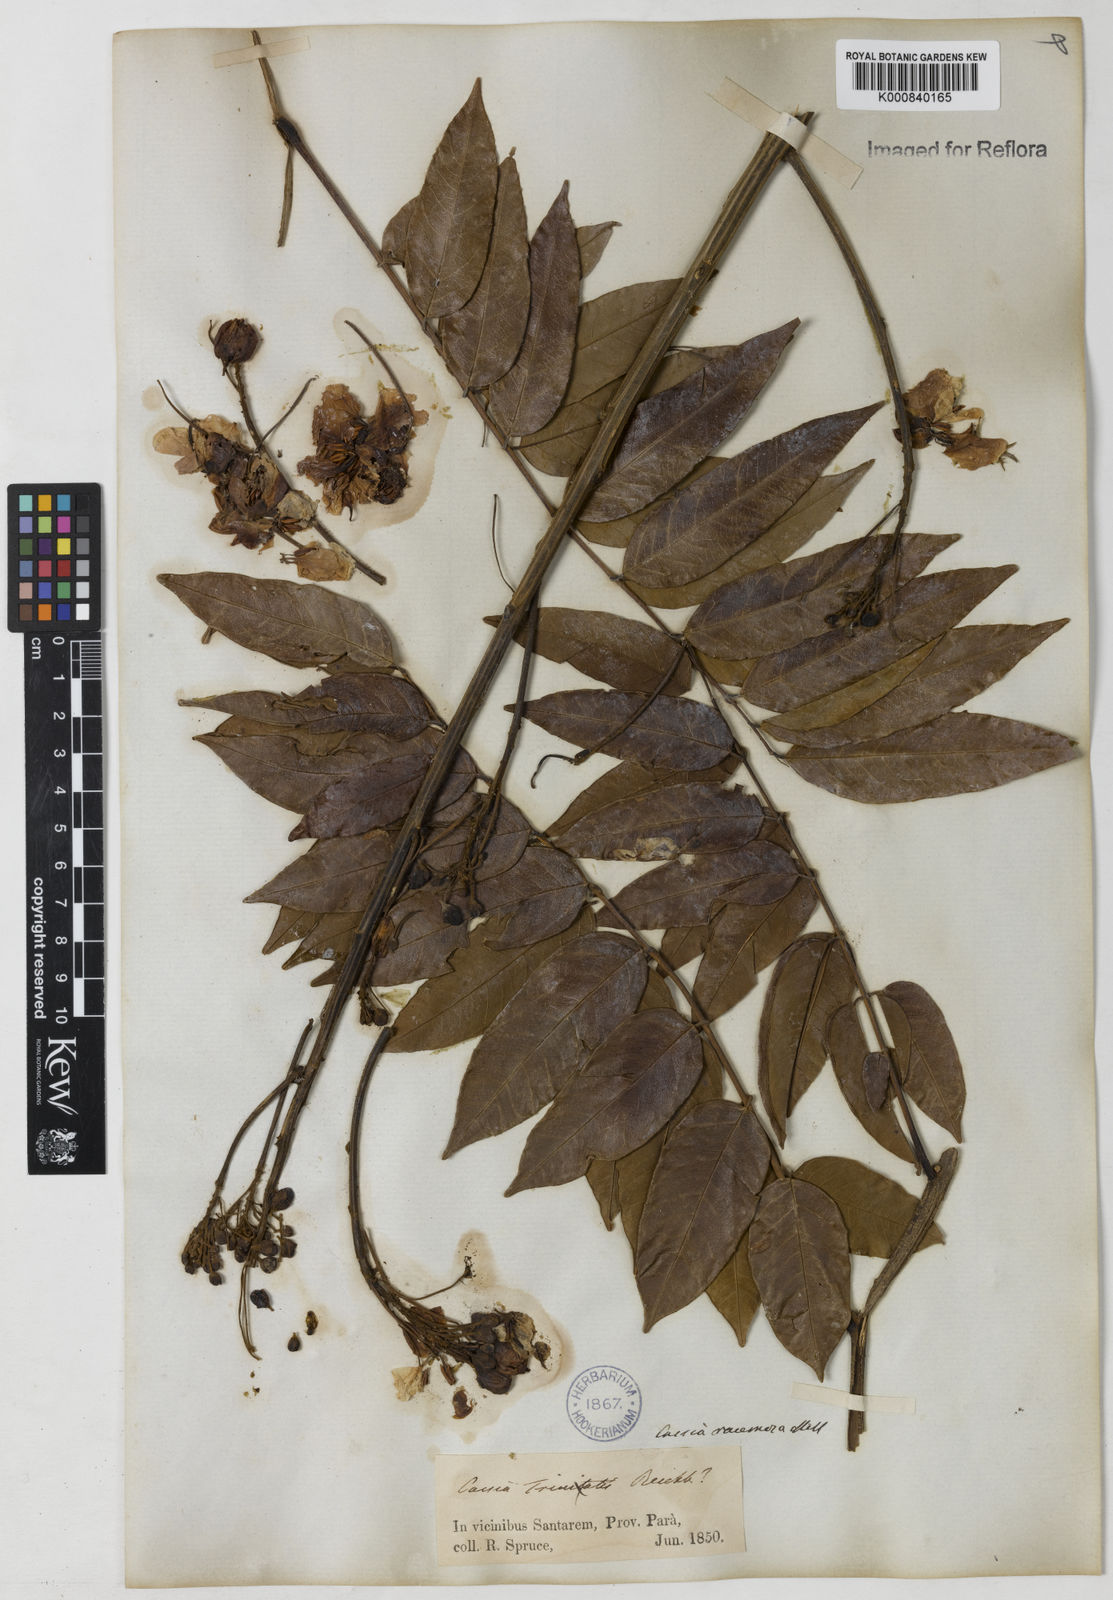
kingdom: Plantae
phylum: Tracheophyta
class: Magnoliopsida
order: Fabales
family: Fabaceae
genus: Senna
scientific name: Senna silvestris
